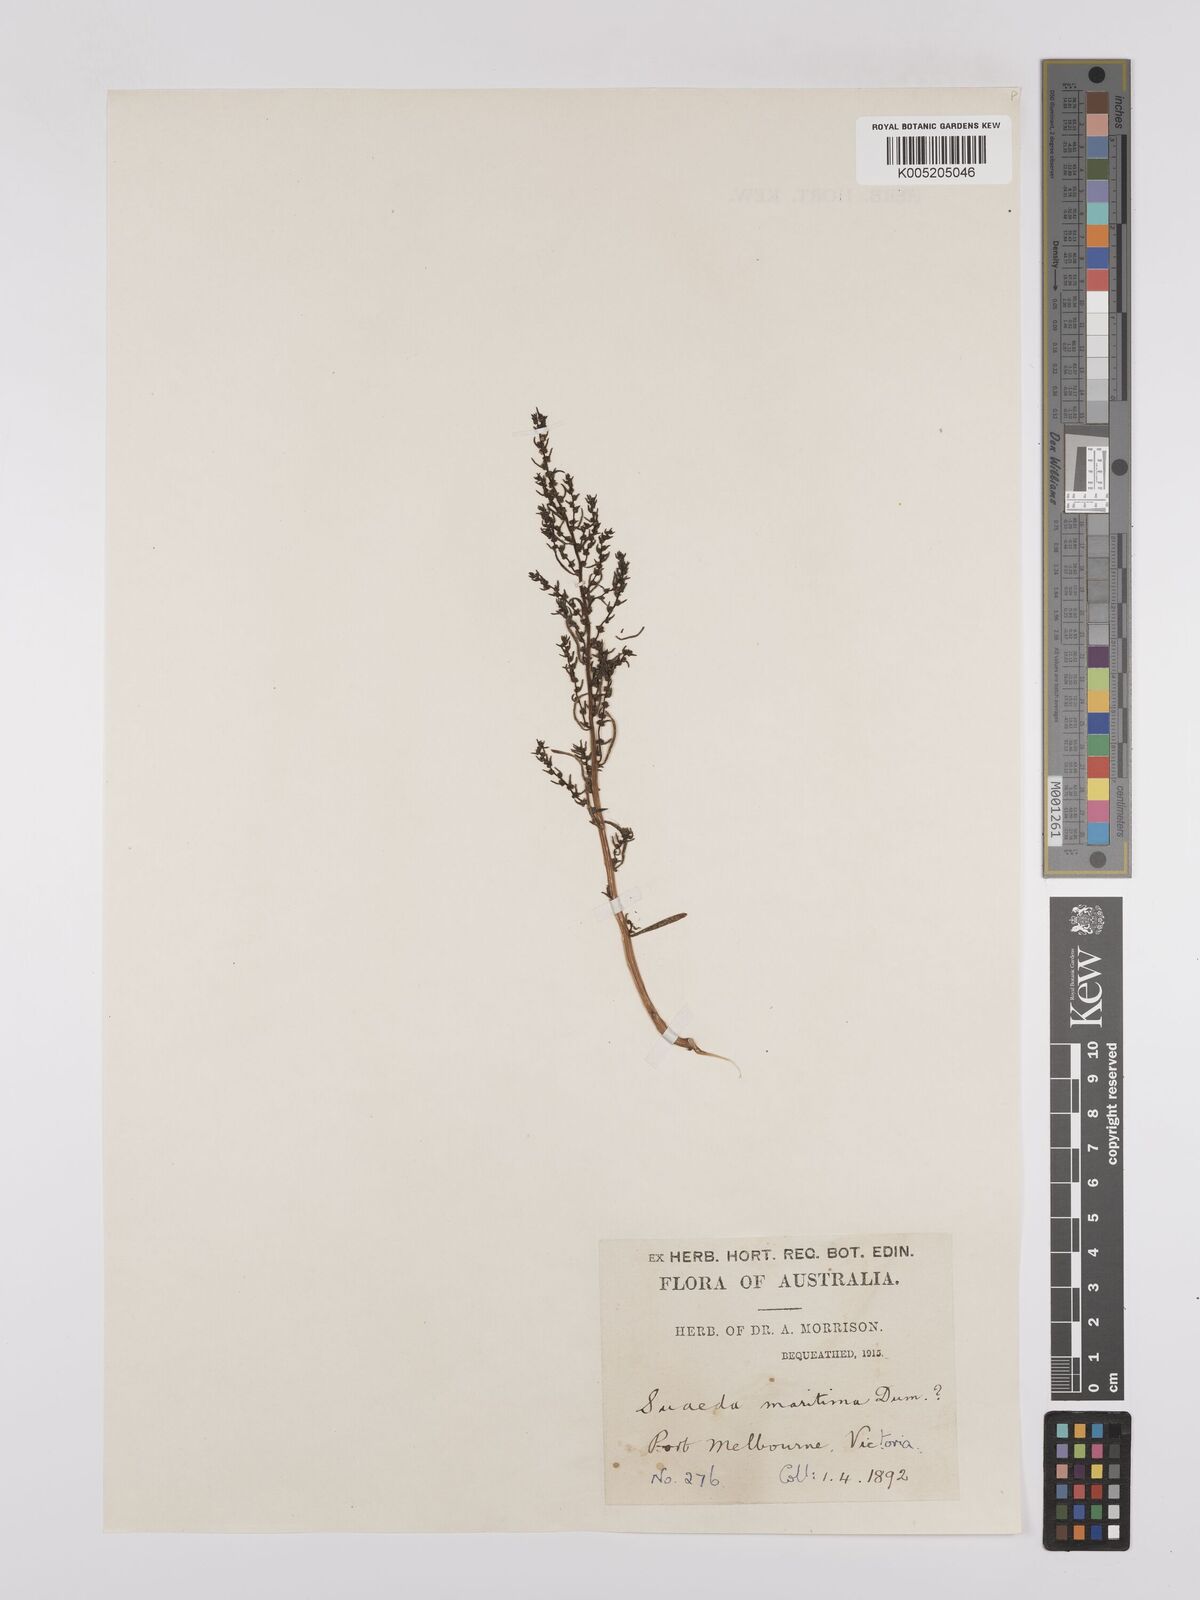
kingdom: Plantae
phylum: Tracheophyta
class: Magnoliopsida
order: Caryophyllales
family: Amaranthaceae
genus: Suaeda
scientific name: Suaeda australis
